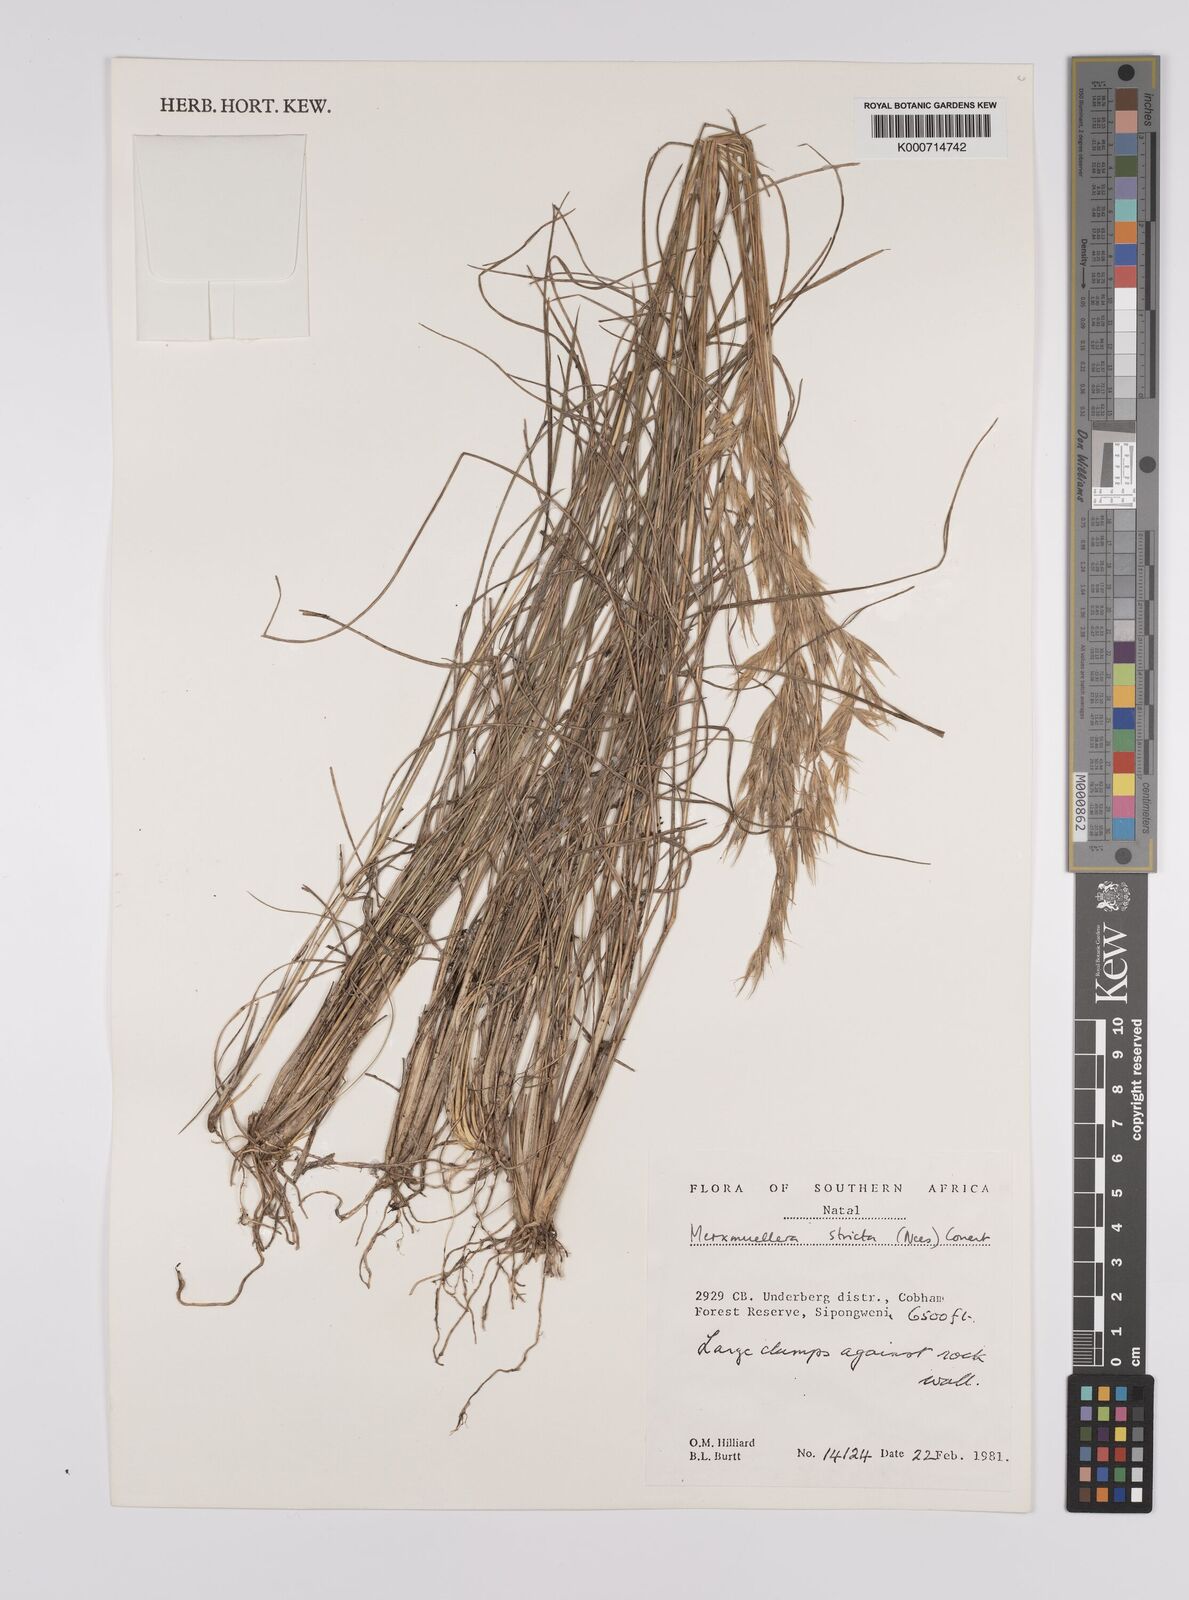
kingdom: Plantae
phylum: Tracheophyta
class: Liliopsida
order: Poales
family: Poaceae
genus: Rytidosperma
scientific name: Rytidosperma
